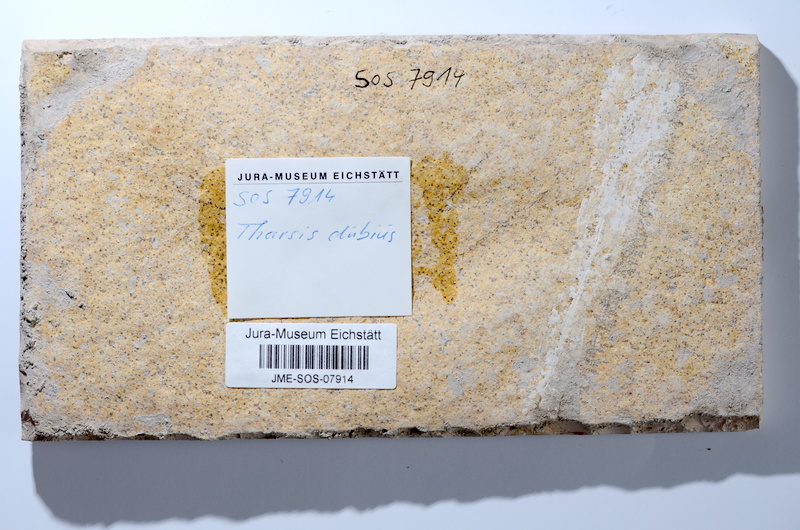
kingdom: Animalia
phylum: Chordata
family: Ascalaboidae
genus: Tharsis
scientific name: Tharsis dubius
